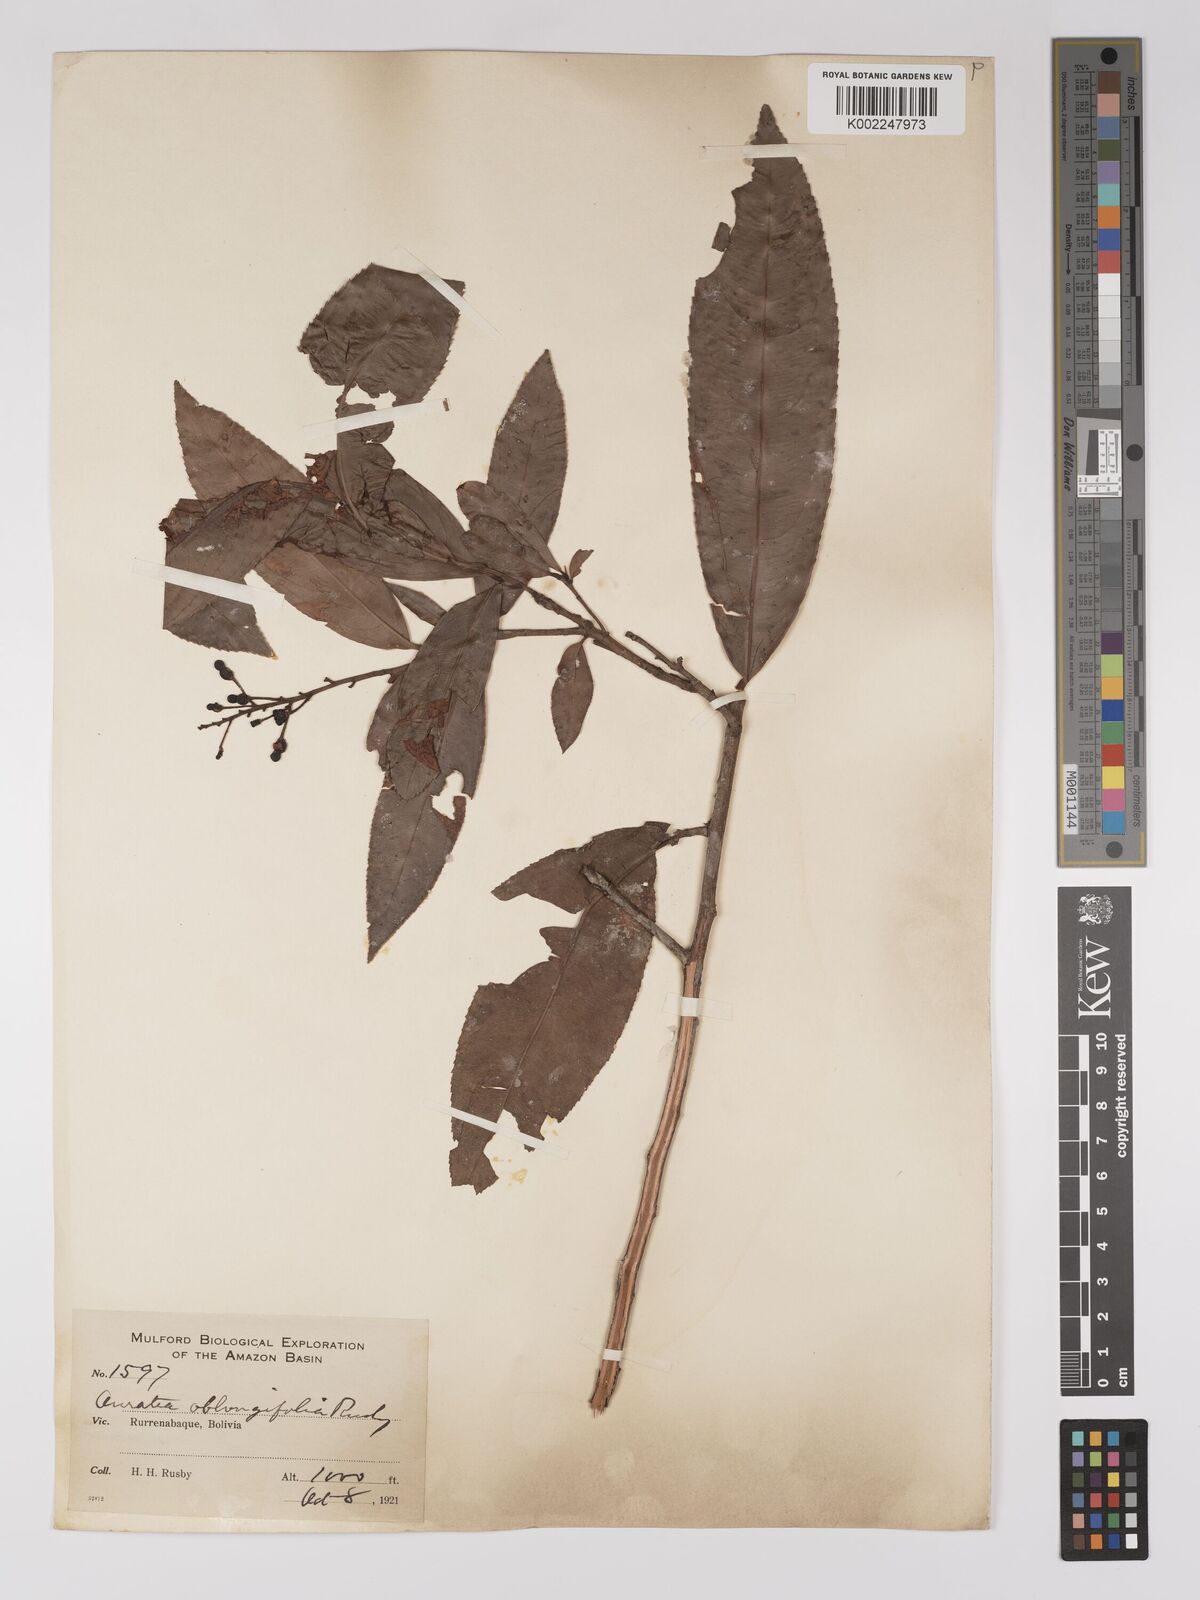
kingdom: Plantae
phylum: Tracheophyta
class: Magnoliopsida
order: Malpighiales
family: Ochnaceae
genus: Ouratea
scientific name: Ouratea oblongifolia
